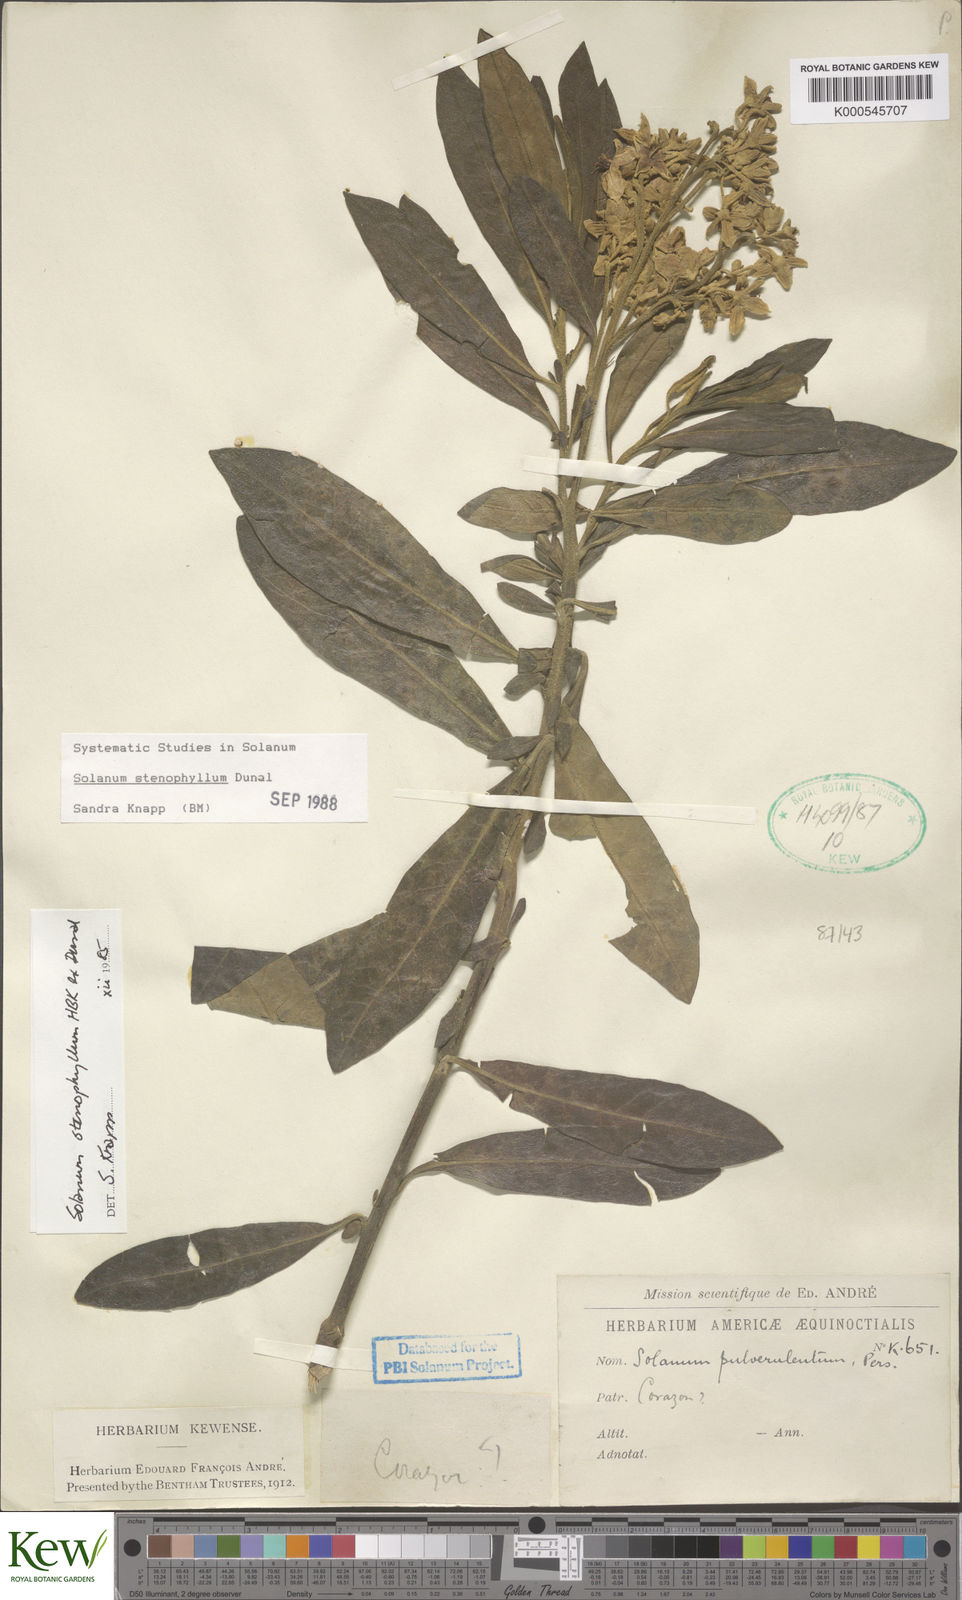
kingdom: Plantae
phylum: Tracheophyta
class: Magnoliopsida
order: Solanales
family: Solanaceae
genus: Solanum
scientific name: Solanum stenophyllum
